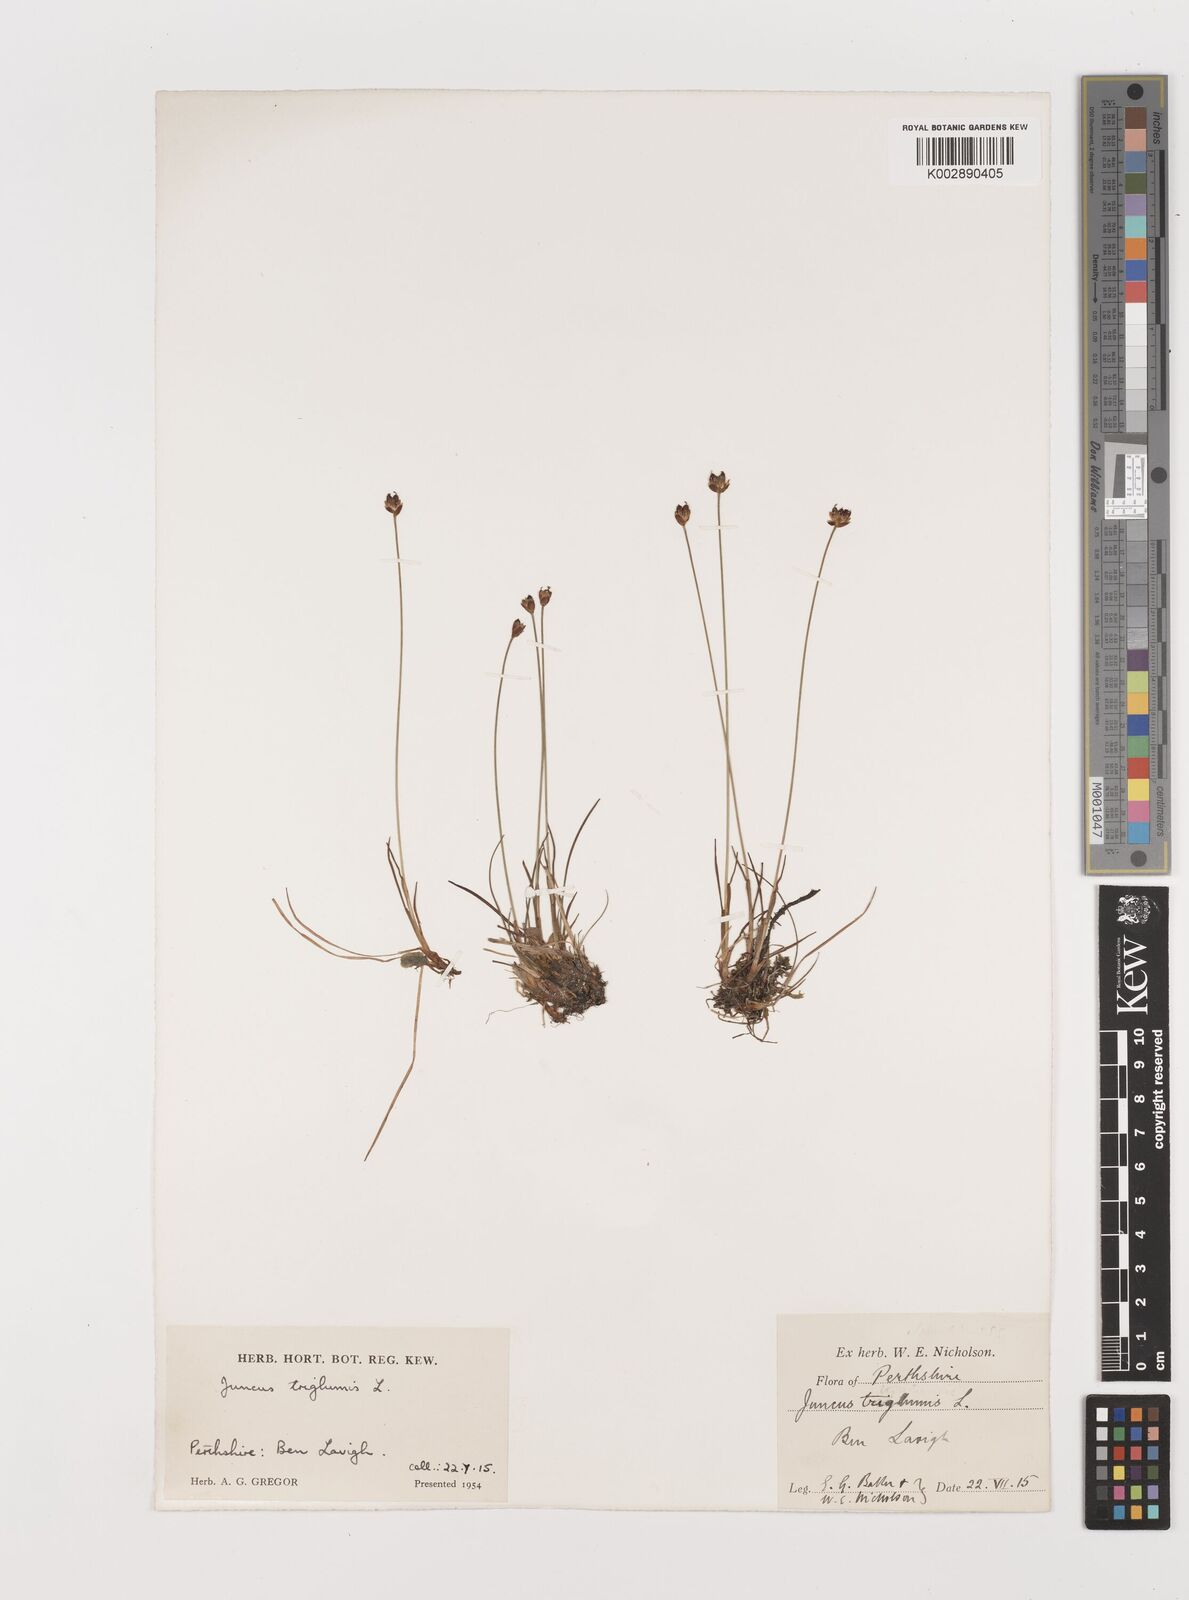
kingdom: Plantae
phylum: Tracheophyta
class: Liliopsida
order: Poales
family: Juncaceae
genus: Juncus
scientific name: Juncus triglumis
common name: Three-flowered rush
